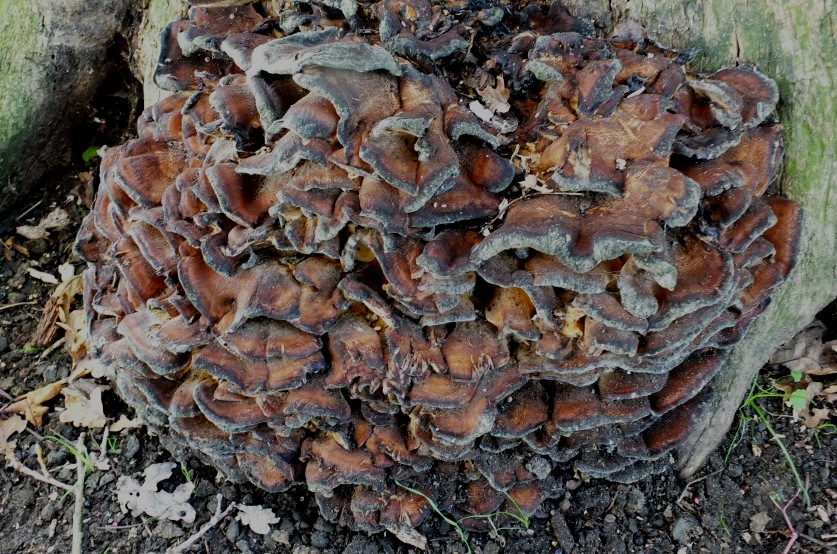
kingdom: Fungi
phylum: Basidiomycota
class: Agaricomycetes
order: Polyporales
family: Grifolaceae
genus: Grifola
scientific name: Grifola frondosa
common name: tueporesvamp
